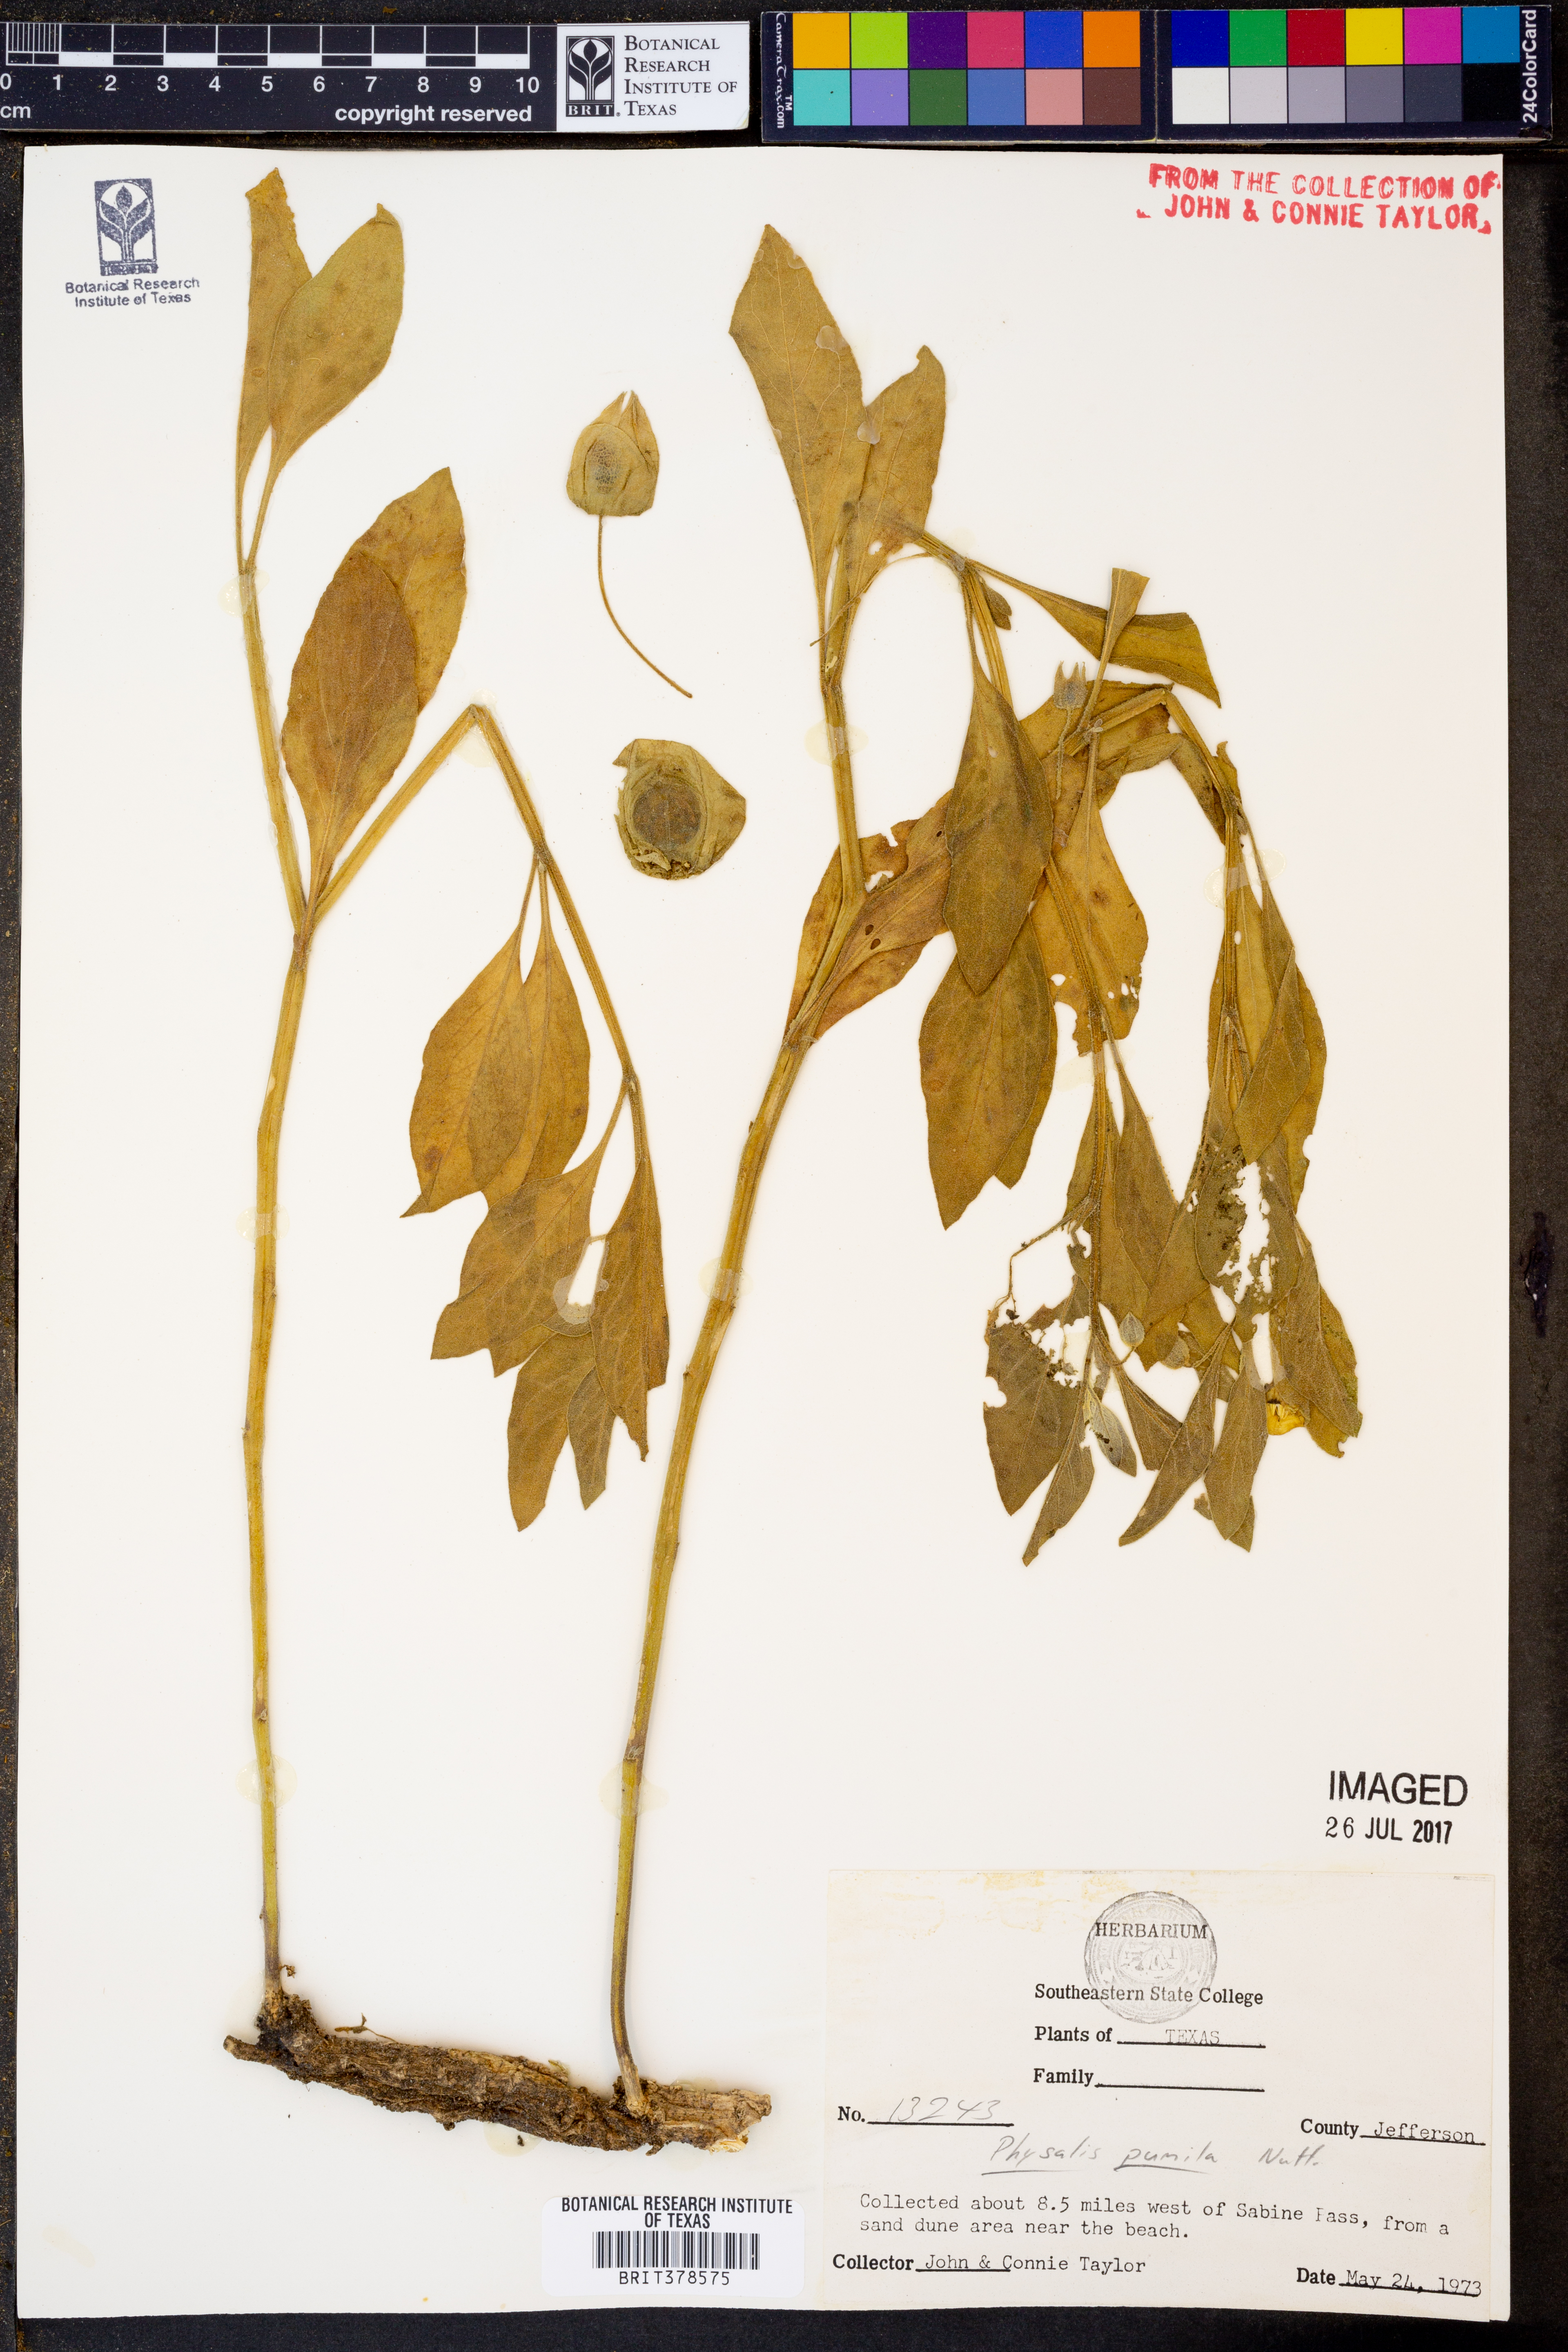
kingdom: Plantae
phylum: Tracheophyta
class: Magnoliopsida
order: Solanales
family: Solanaceae
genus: Physalis
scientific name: Physalis pumila
